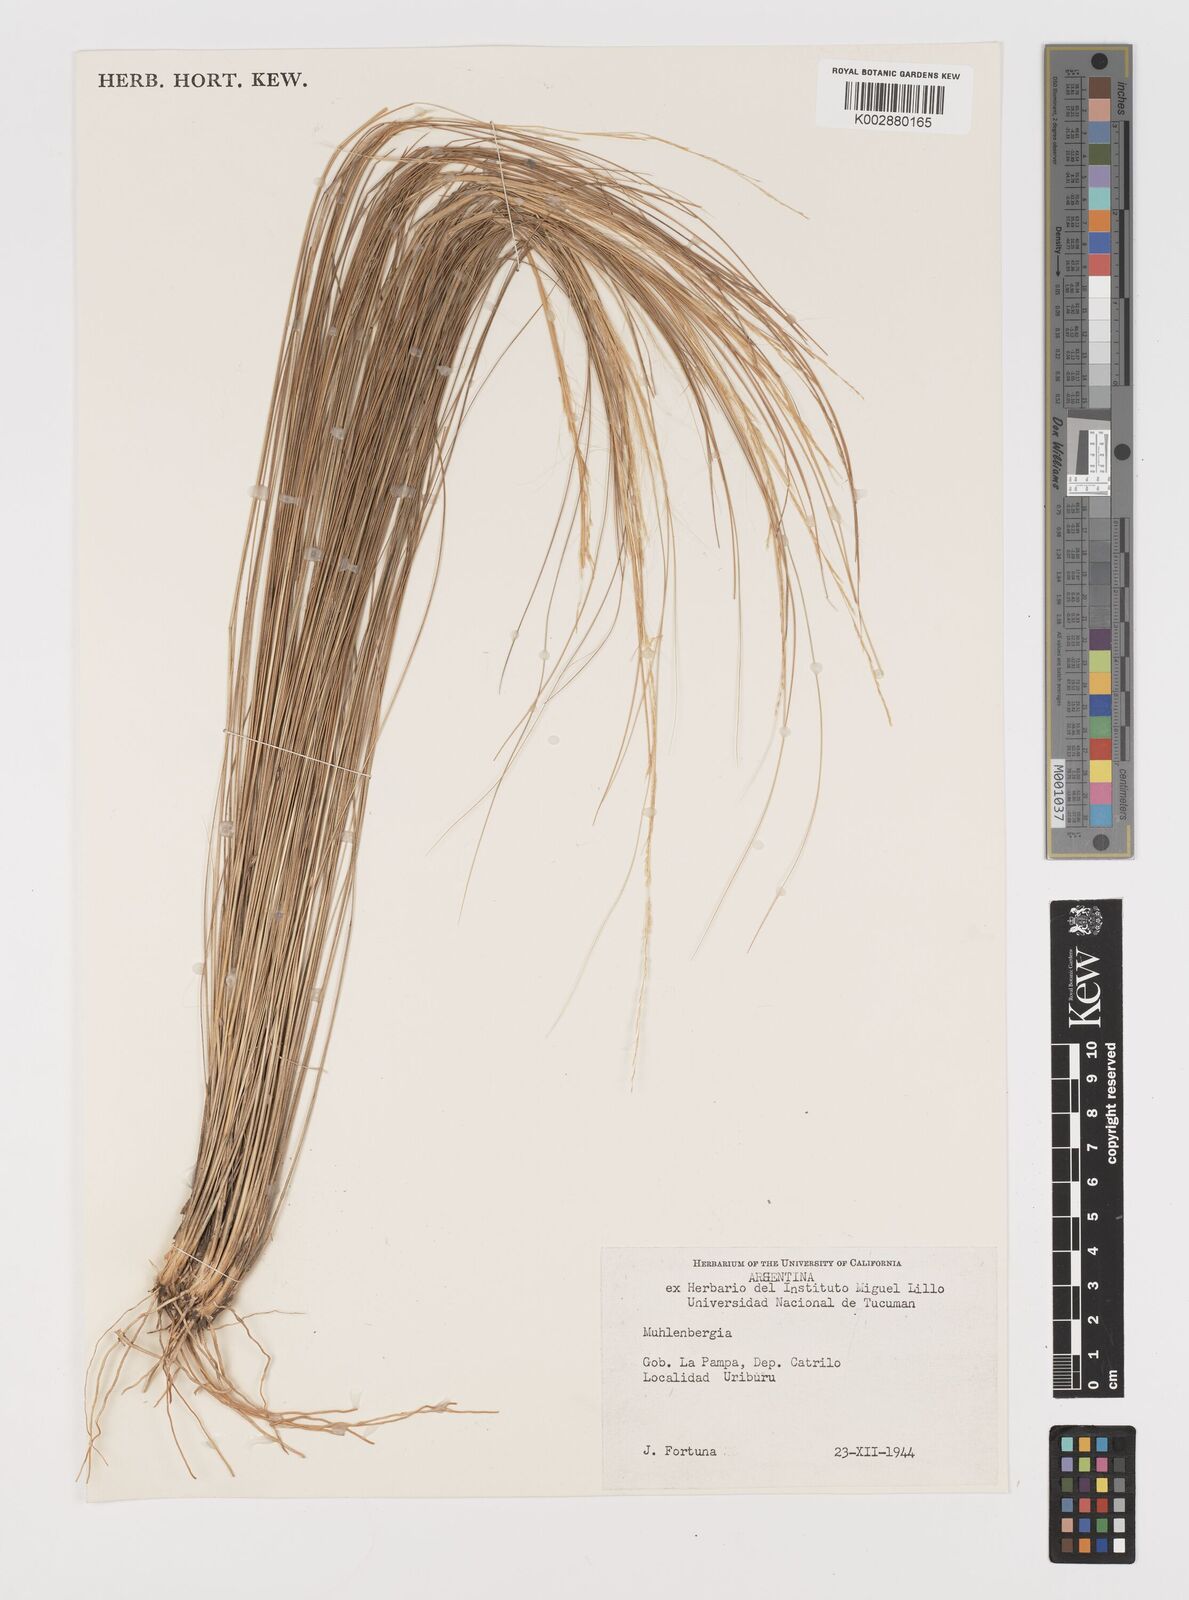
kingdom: Plantae
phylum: Tracheophyta
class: Liliopsida
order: Poales
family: Poaceae
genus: Muhlenbergia
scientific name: Muhlenbergia
